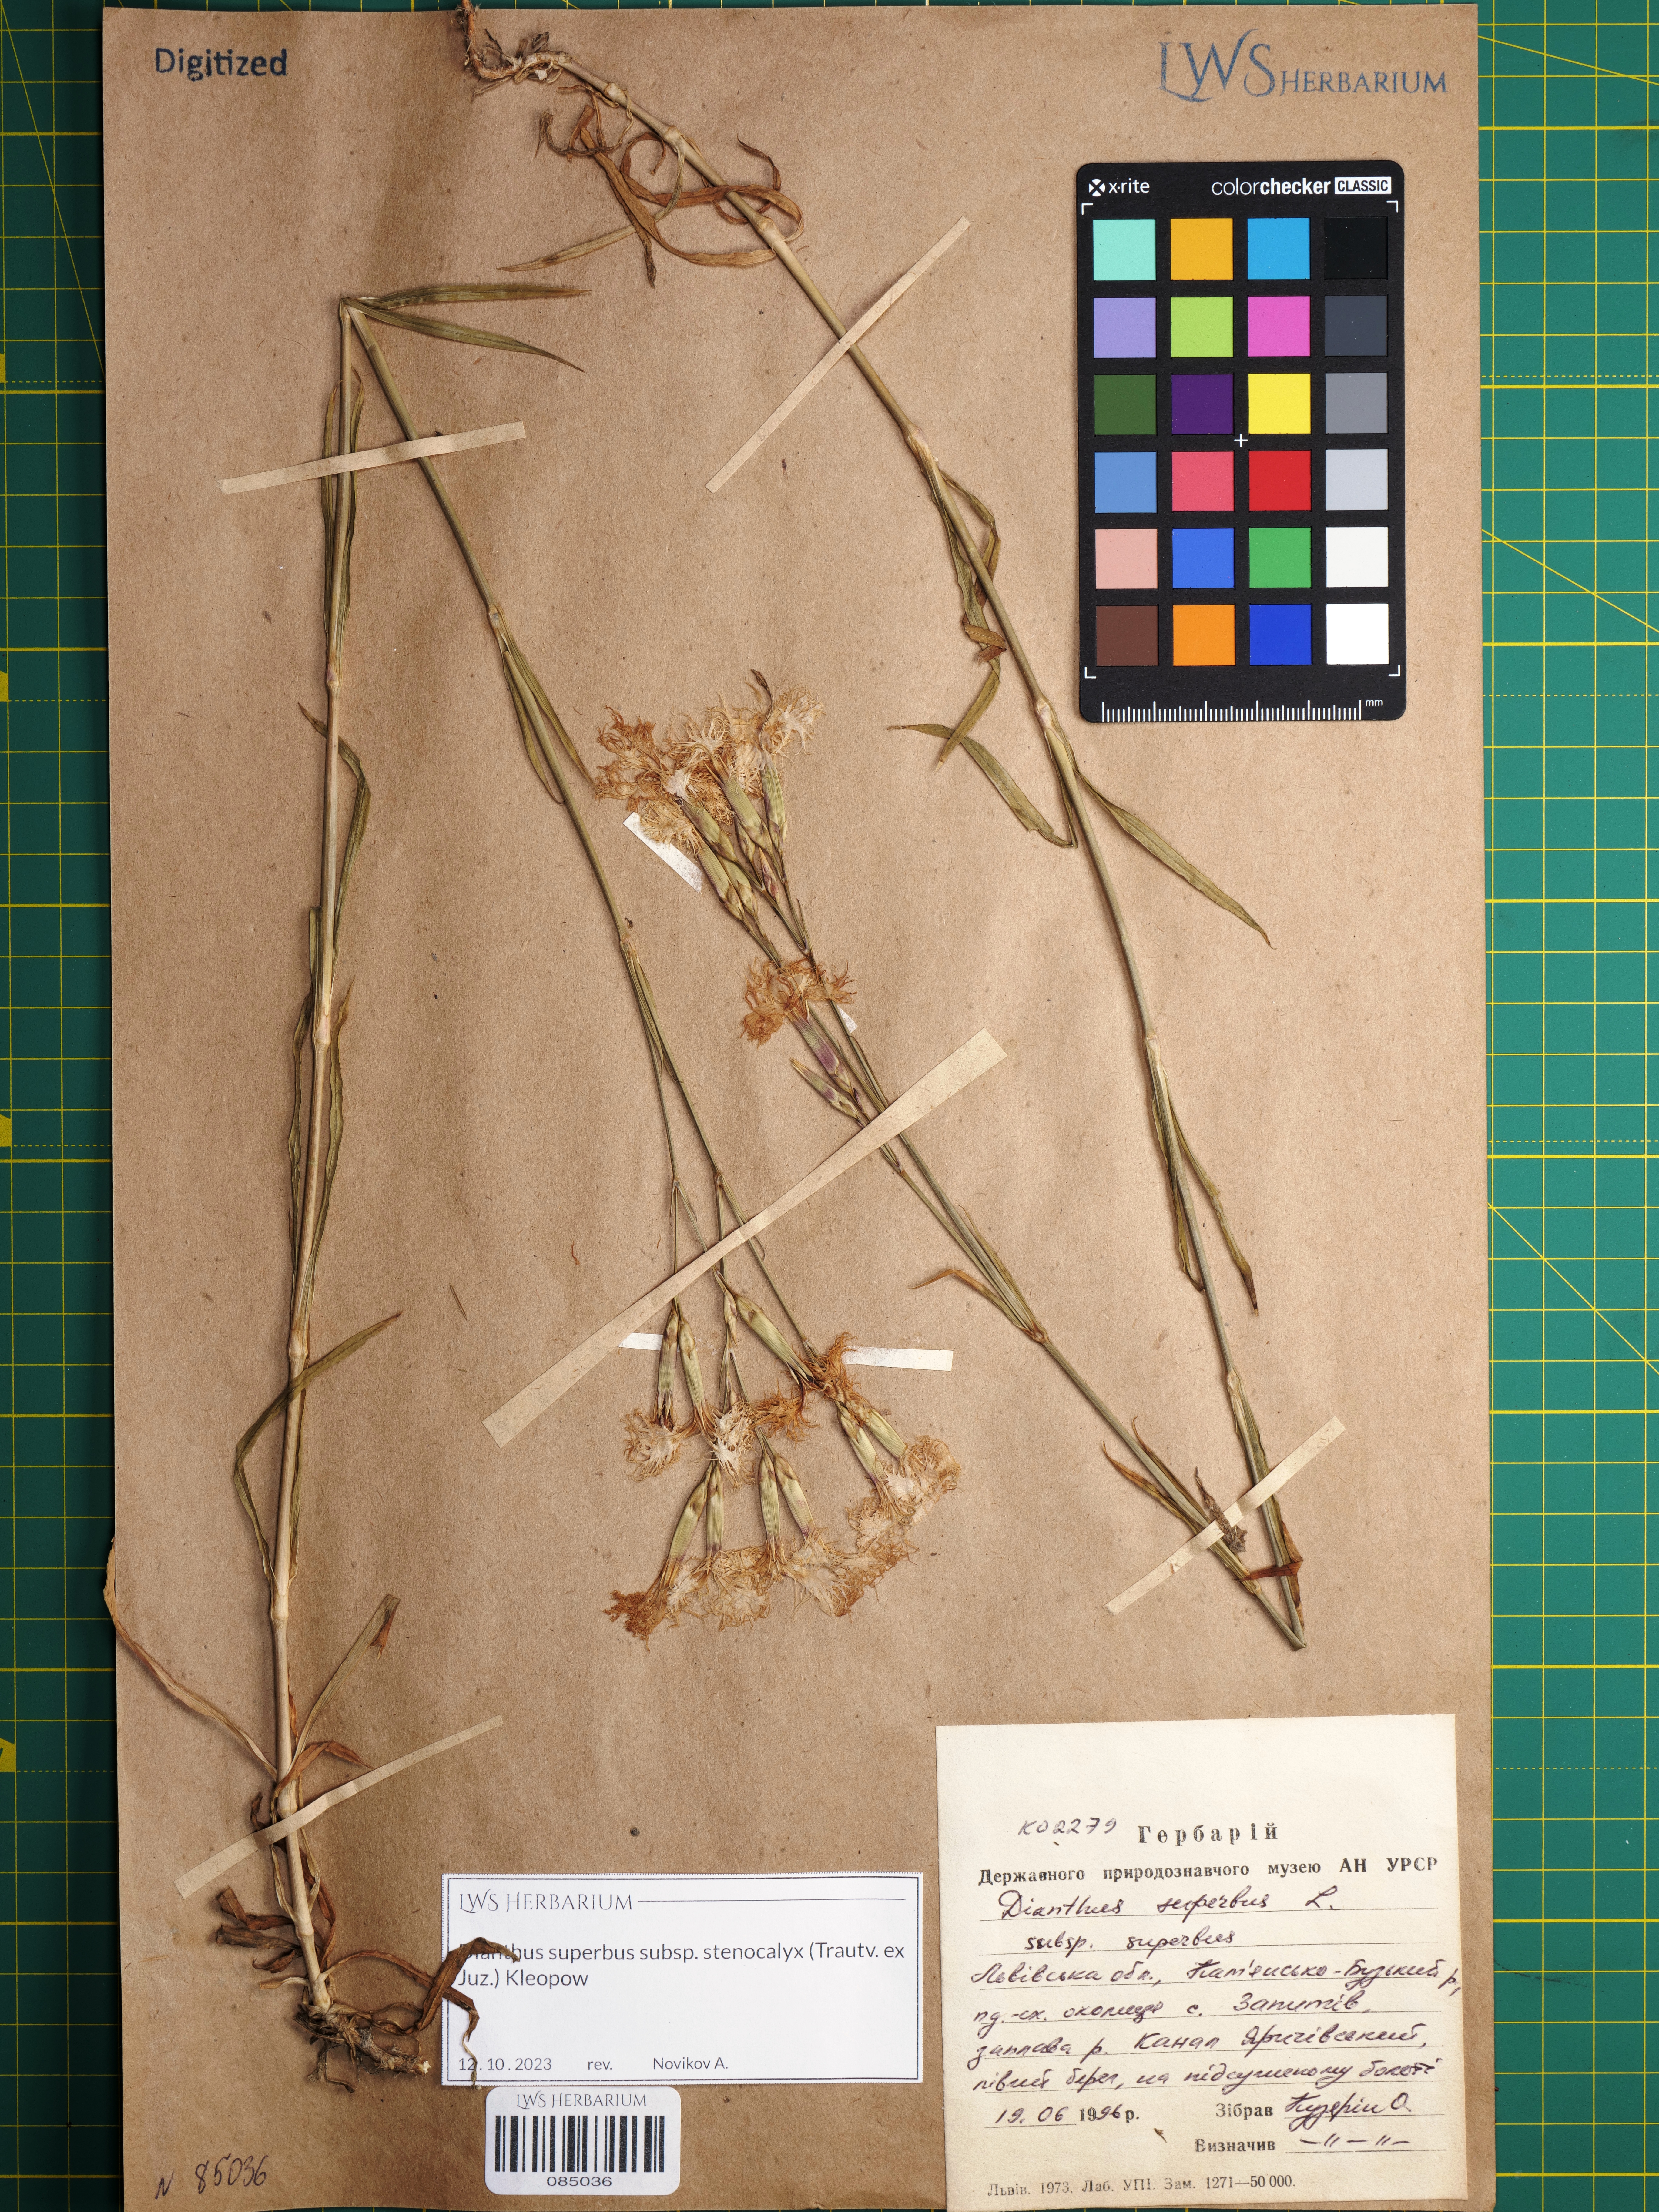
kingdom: Plantae
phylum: Tracheophyta
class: Magnoliopsida
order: Caryophyllales
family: Caryophyllaceae
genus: Dianthus
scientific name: Dianthus superbus
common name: Fringed pink
